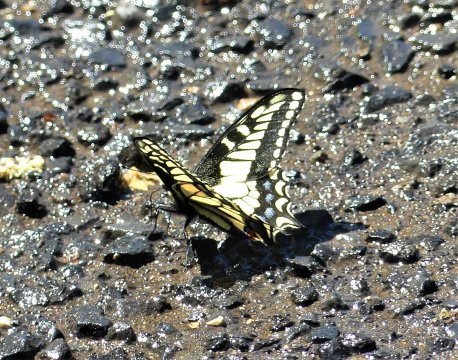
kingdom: Animalia
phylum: Arthropoda
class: Insecta
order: Lepidoptera
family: Papilionidae
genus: Papilio
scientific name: Papilio zelicaon
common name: Anise Swallowtail
